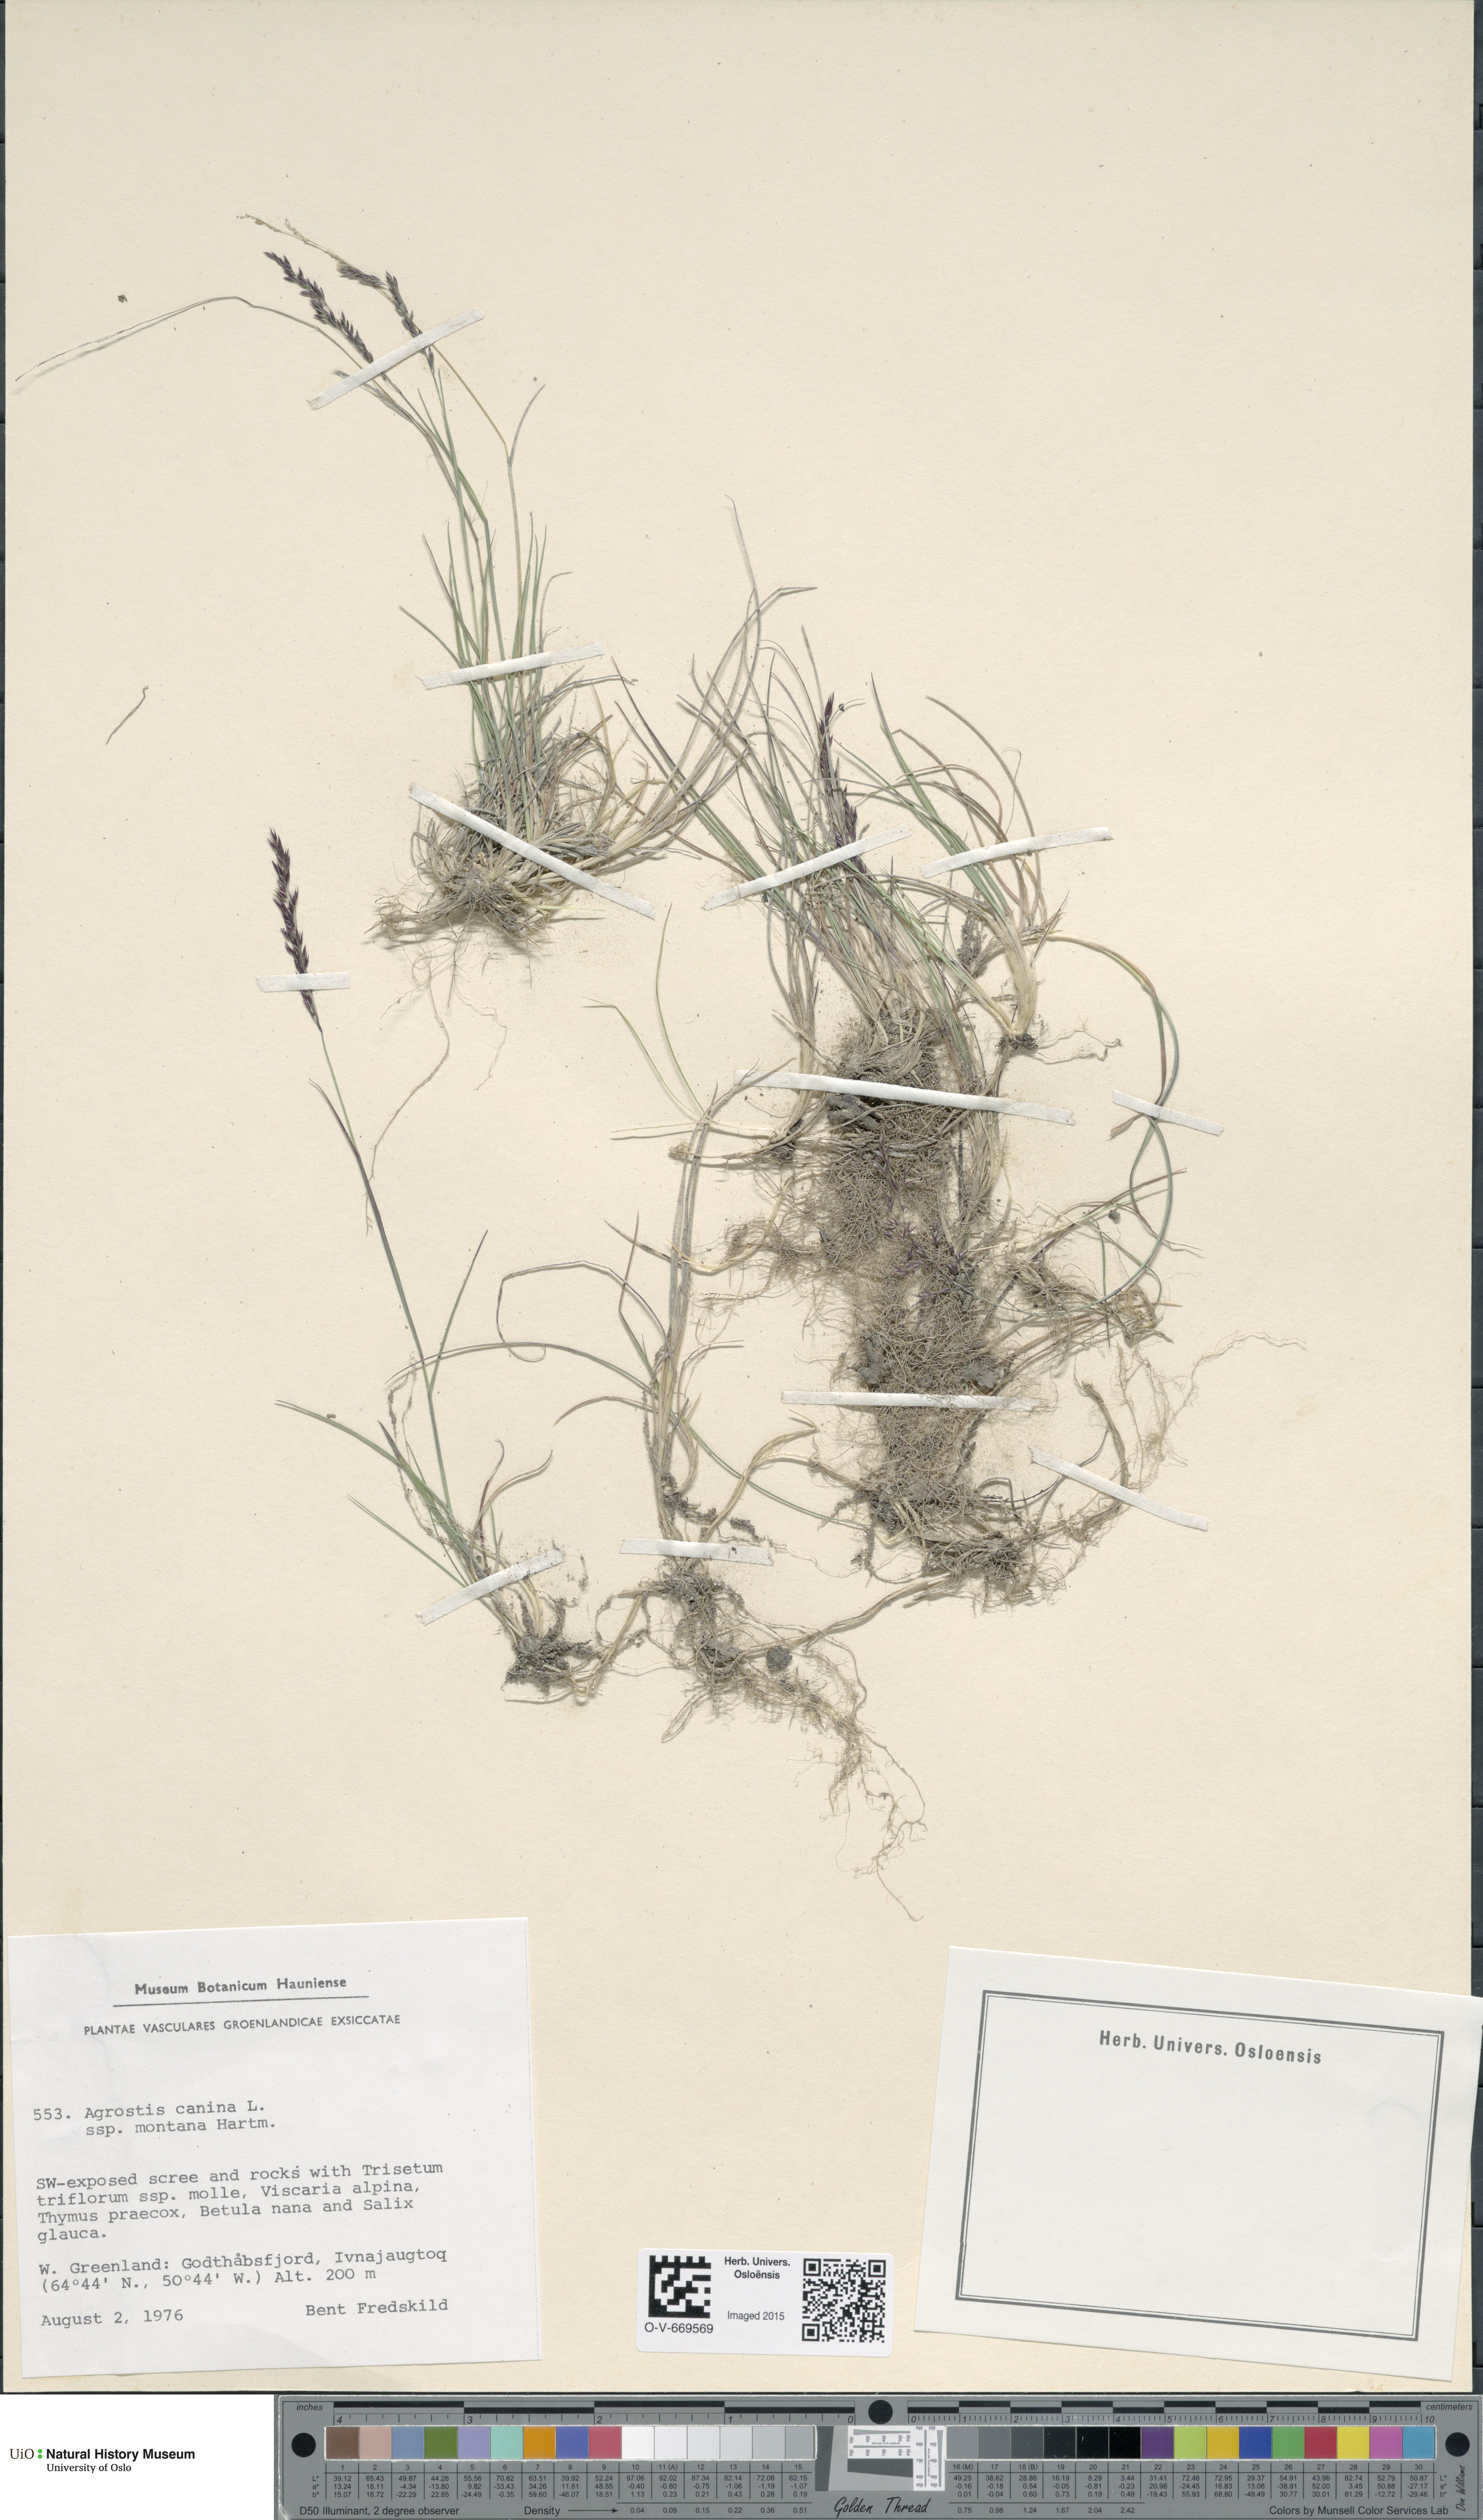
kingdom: Plantae
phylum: Tracheophyta
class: Liliopsida
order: Poales
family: Poaceae
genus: Agrostis
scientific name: Agrostis canina
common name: Velvet bent
